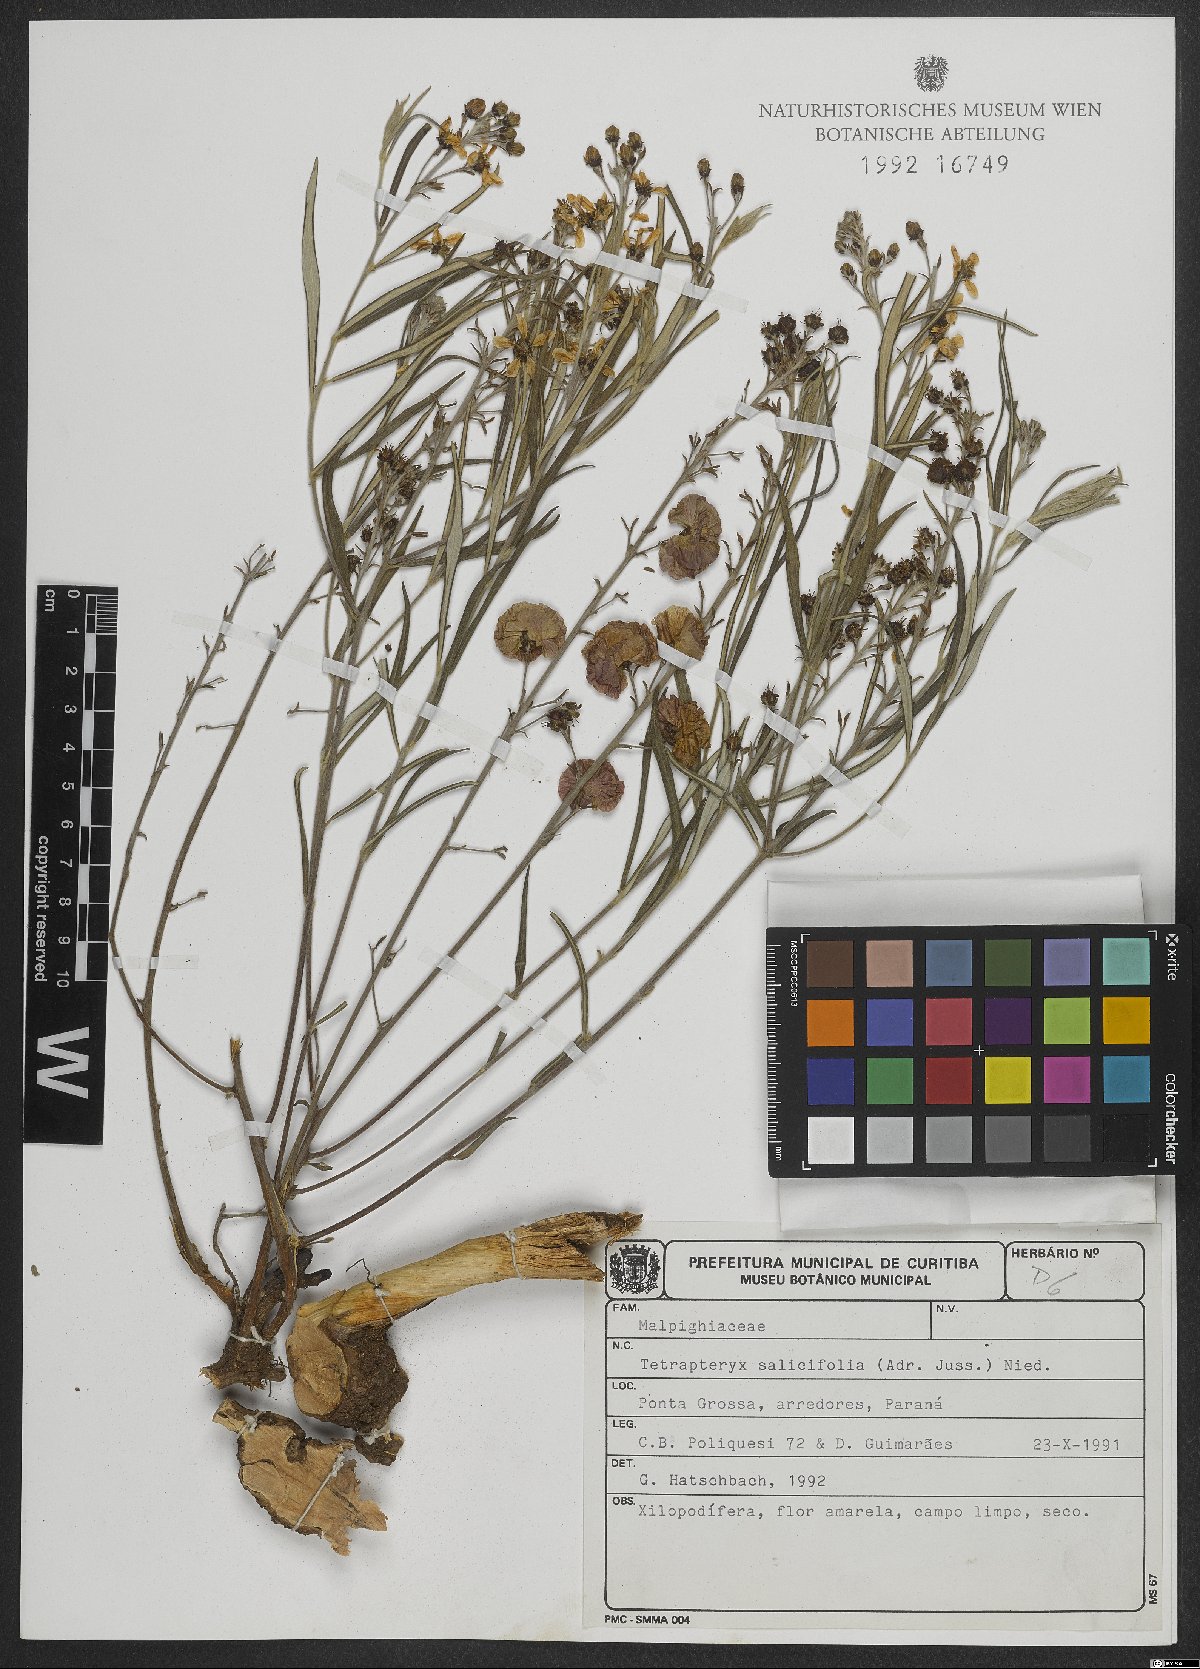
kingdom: Plantae
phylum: Tracheophyta
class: Magnoliopsida
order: Malpighiales
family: Malpighiaceae
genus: Glicophyllum
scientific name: Glicophyllum salicifolium
